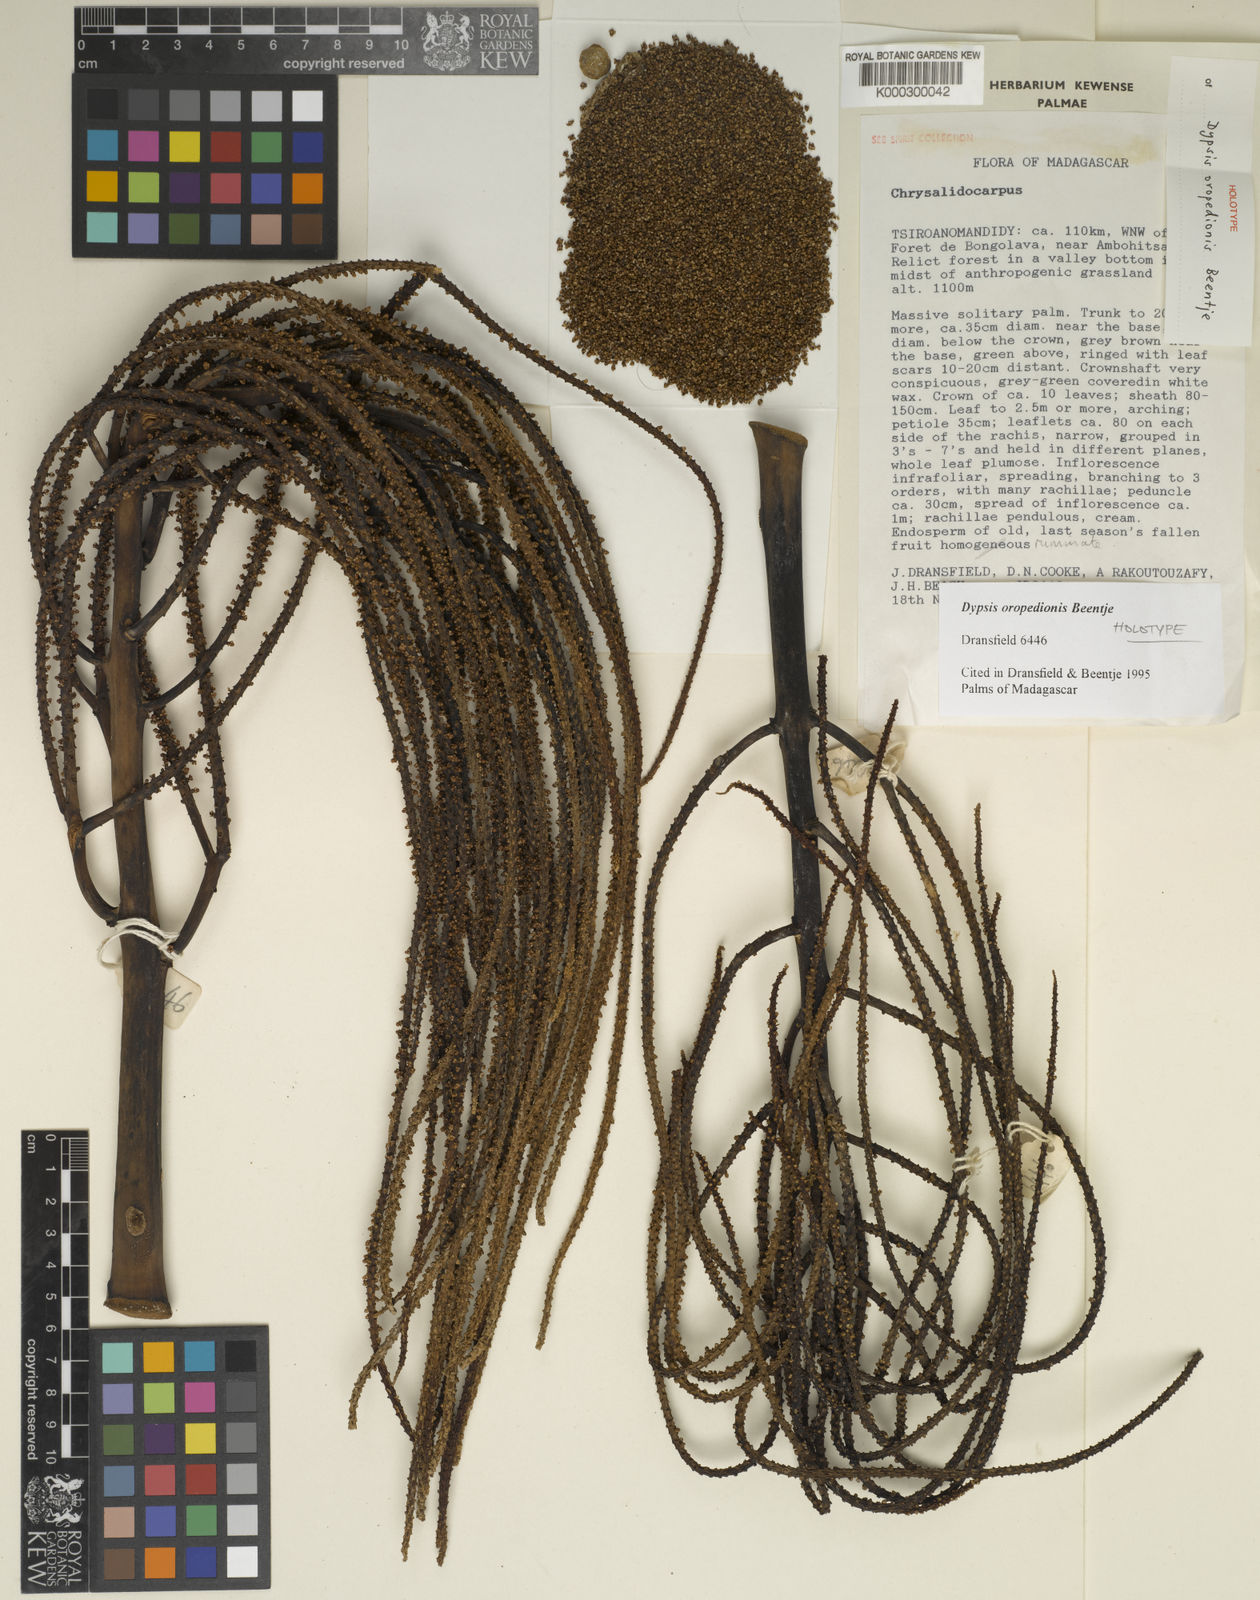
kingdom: Plantae
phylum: Tracheophyta
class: Liliopsida
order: Arecales
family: Arecaceae
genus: Dypsis
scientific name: Dypsis oropedionis
